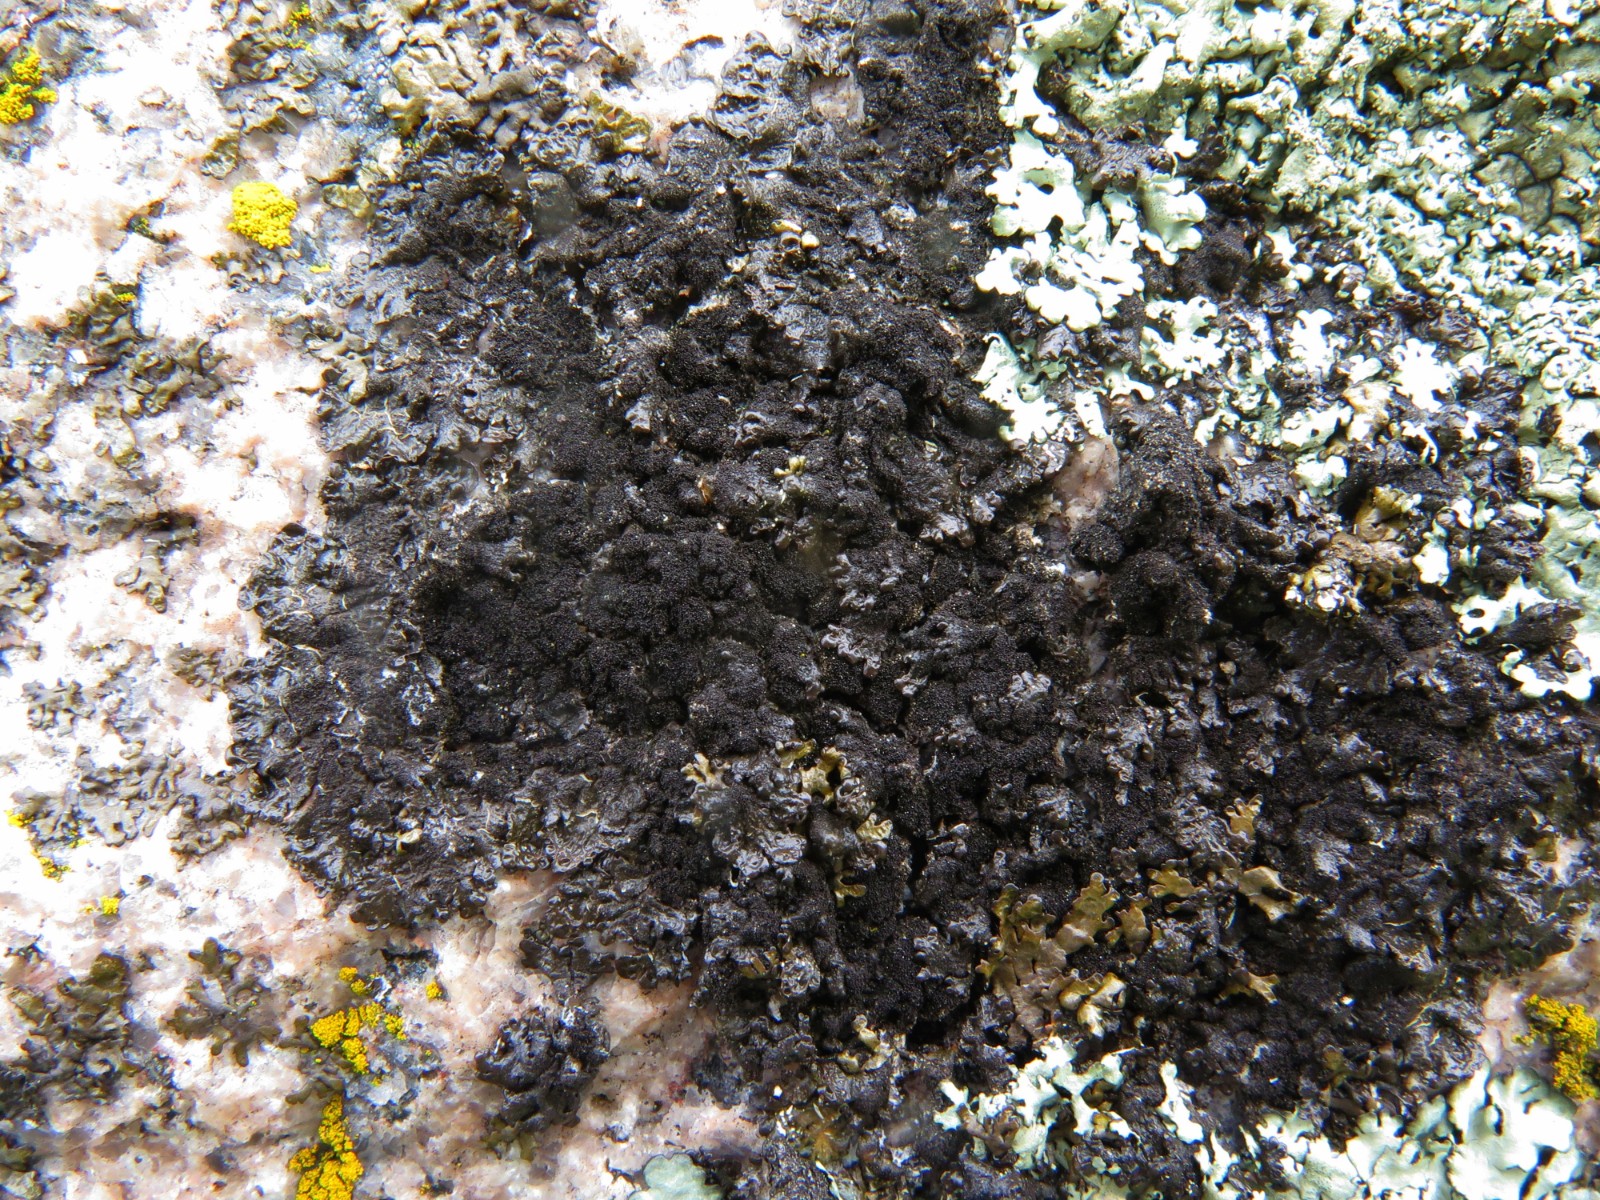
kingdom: Fungi
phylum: Ascomycota
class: Lecanoromycetes
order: Lecanorales
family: Parmeliaceae
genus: Melanelixia
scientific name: Melanelixia fuliginosa
